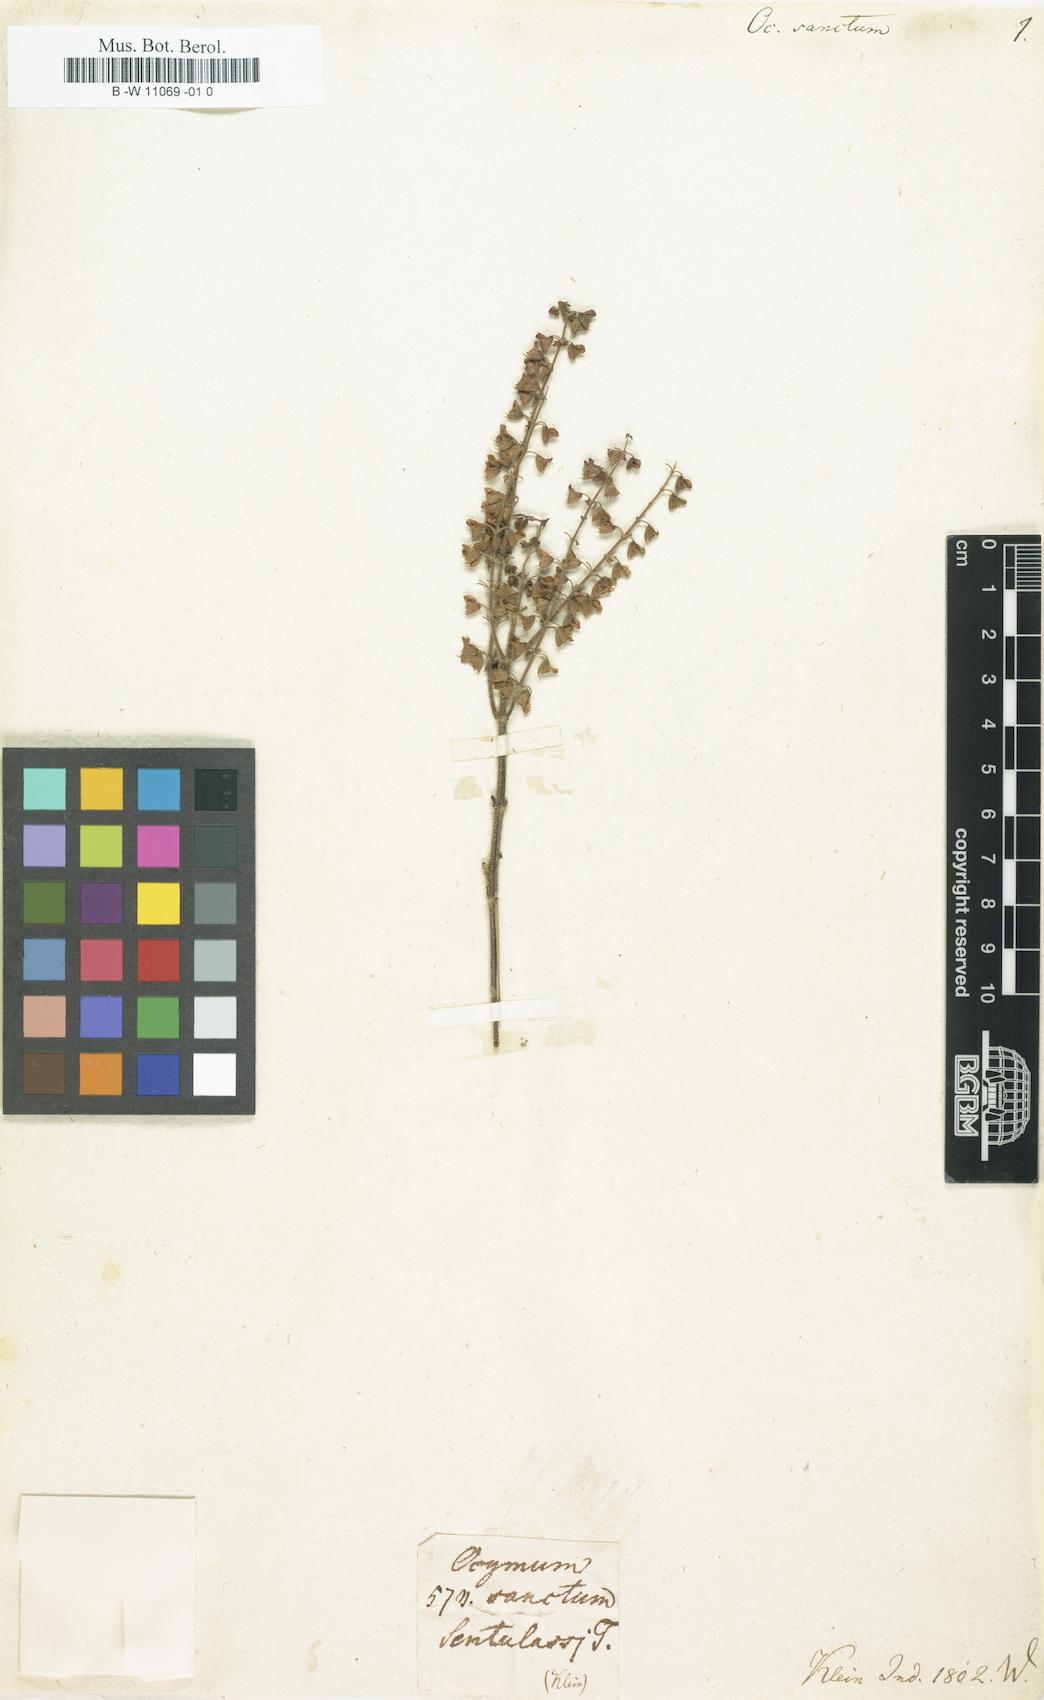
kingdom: Plantae
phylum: Tracheophyta
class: Magnoliopsida
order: Lamiales
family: Lamiaceae
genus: Ocimum
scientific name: Ocimum tenuiflorum
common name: Sacred basil
